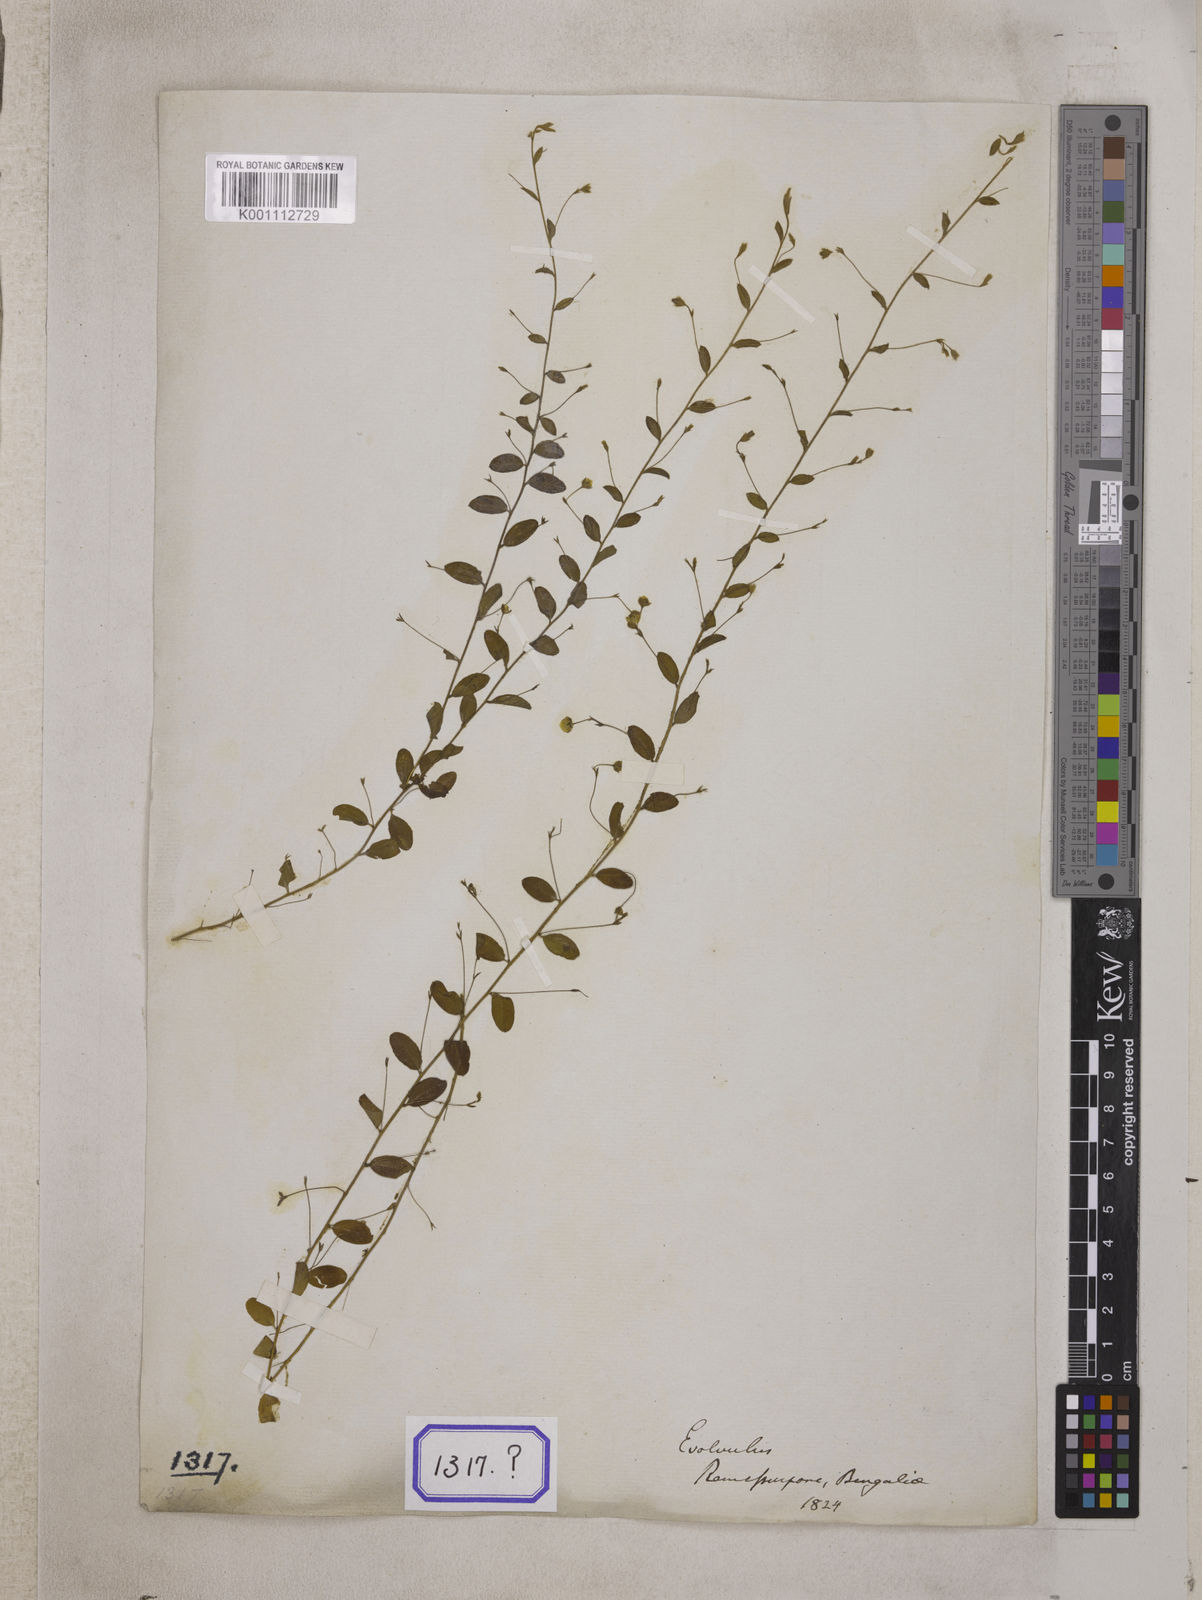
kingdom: Plantae
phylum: Tracheophyta
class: Magnoliopsida
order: Solanales
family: Convolvulaceae
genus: Evolvulus
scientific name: Evolvulus alsinoides
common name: Slender dwarf morning-glory
